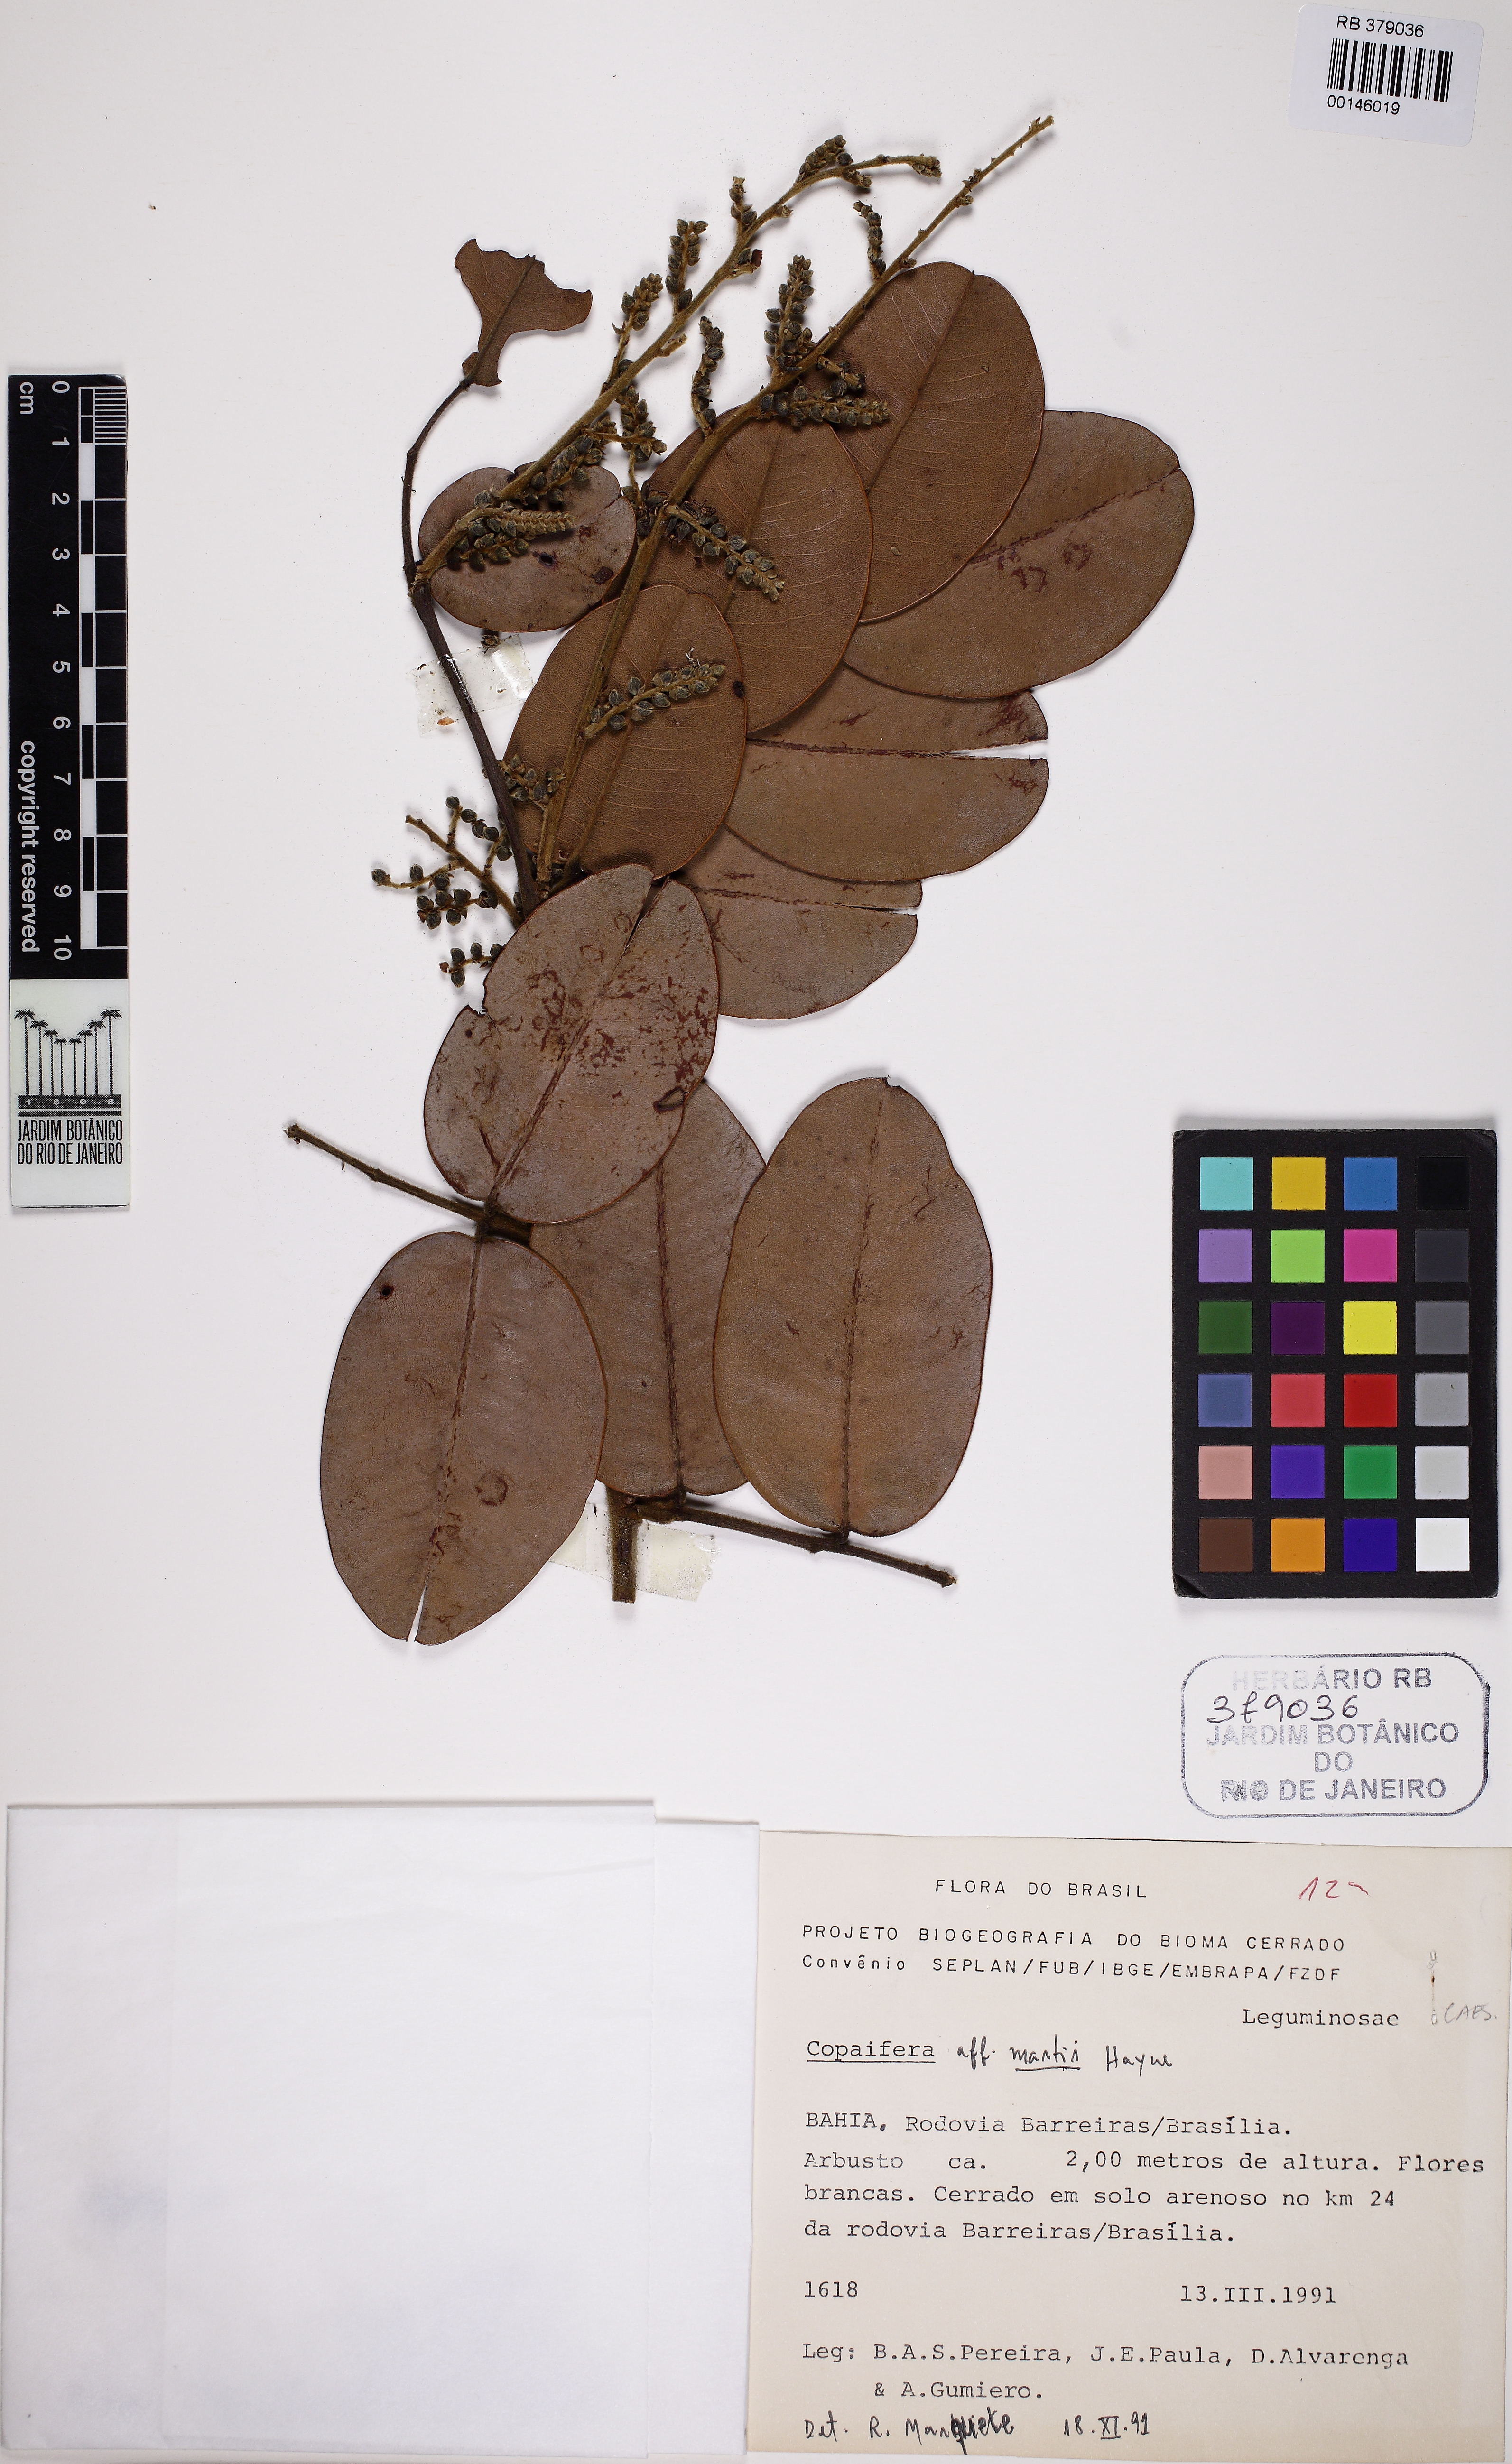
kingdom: Plantae
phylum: Tracheophyta
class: Magnoliopsida
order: Fabales
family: Fabaceae
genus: Copaifera
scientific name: Copaifera martii
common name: Copaiba
